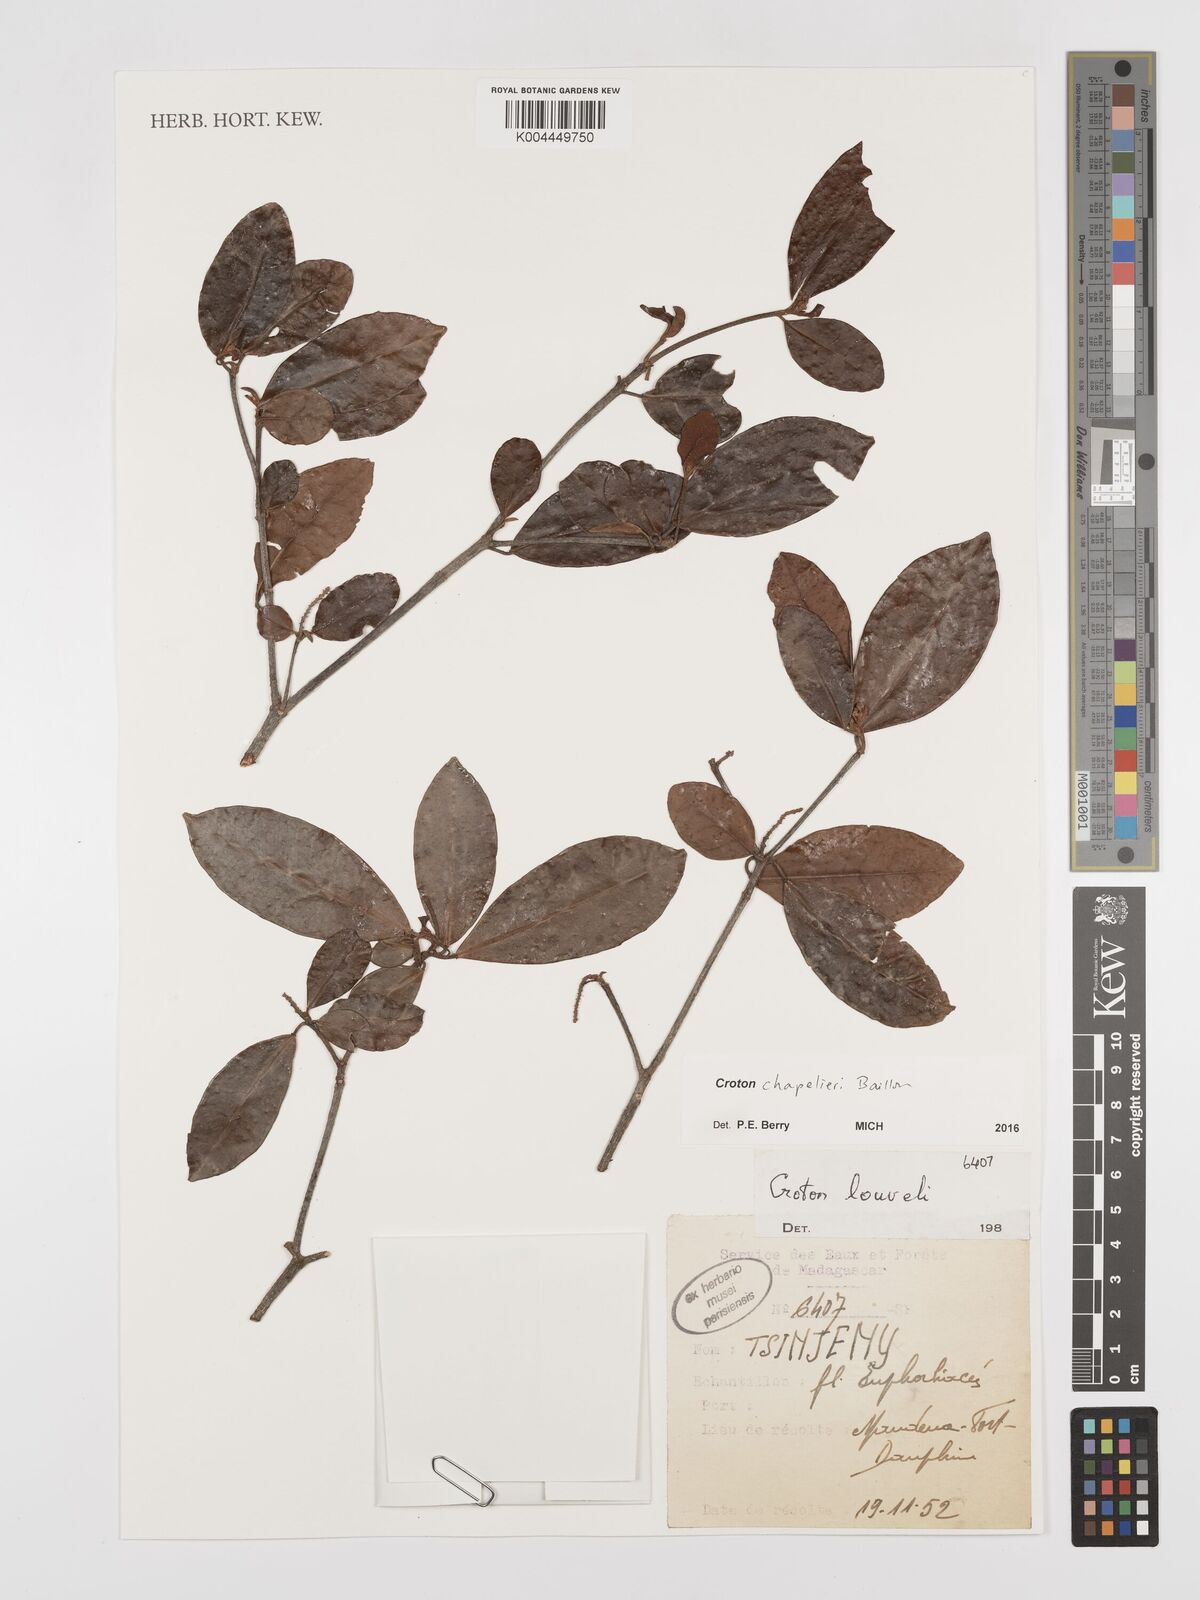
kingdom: Plantae
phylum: Tracheophyta
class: Magnoliopsida
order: Malpighiales
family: Euphorbiaceae
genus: Croton
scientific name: Croton chapelieri
